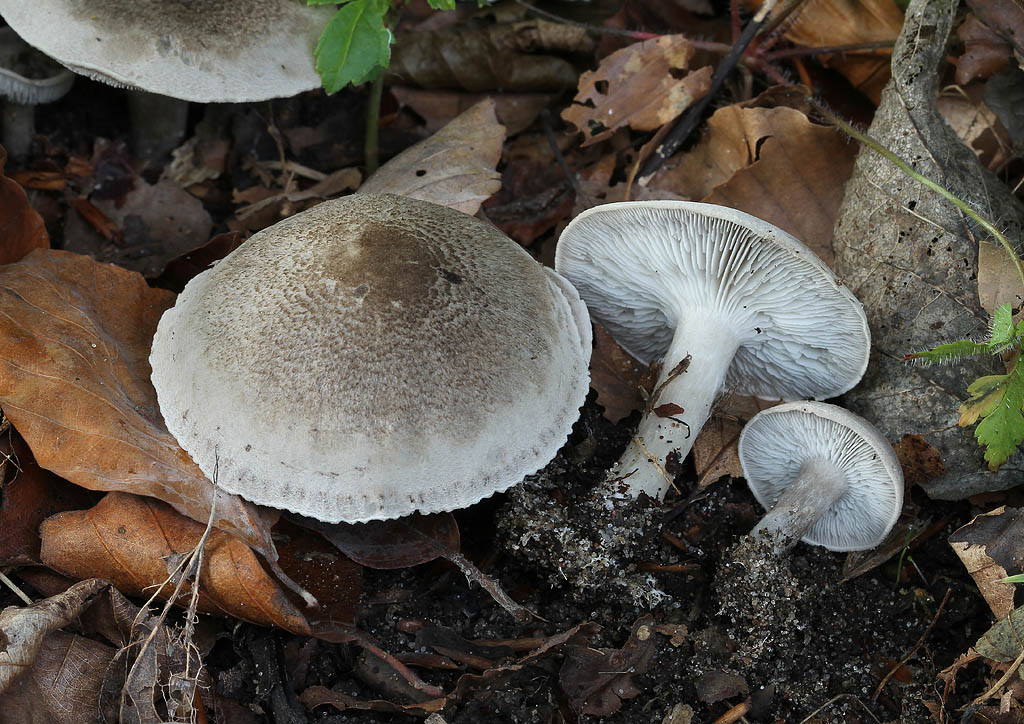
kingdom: Fungi
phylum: Basidiomycota
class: Agaricomycetes
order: Agaricales
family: Tricholomataceae
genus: Tricholoma
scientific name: Tricholoma scalpturatum
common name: gulplettet ridderhat
